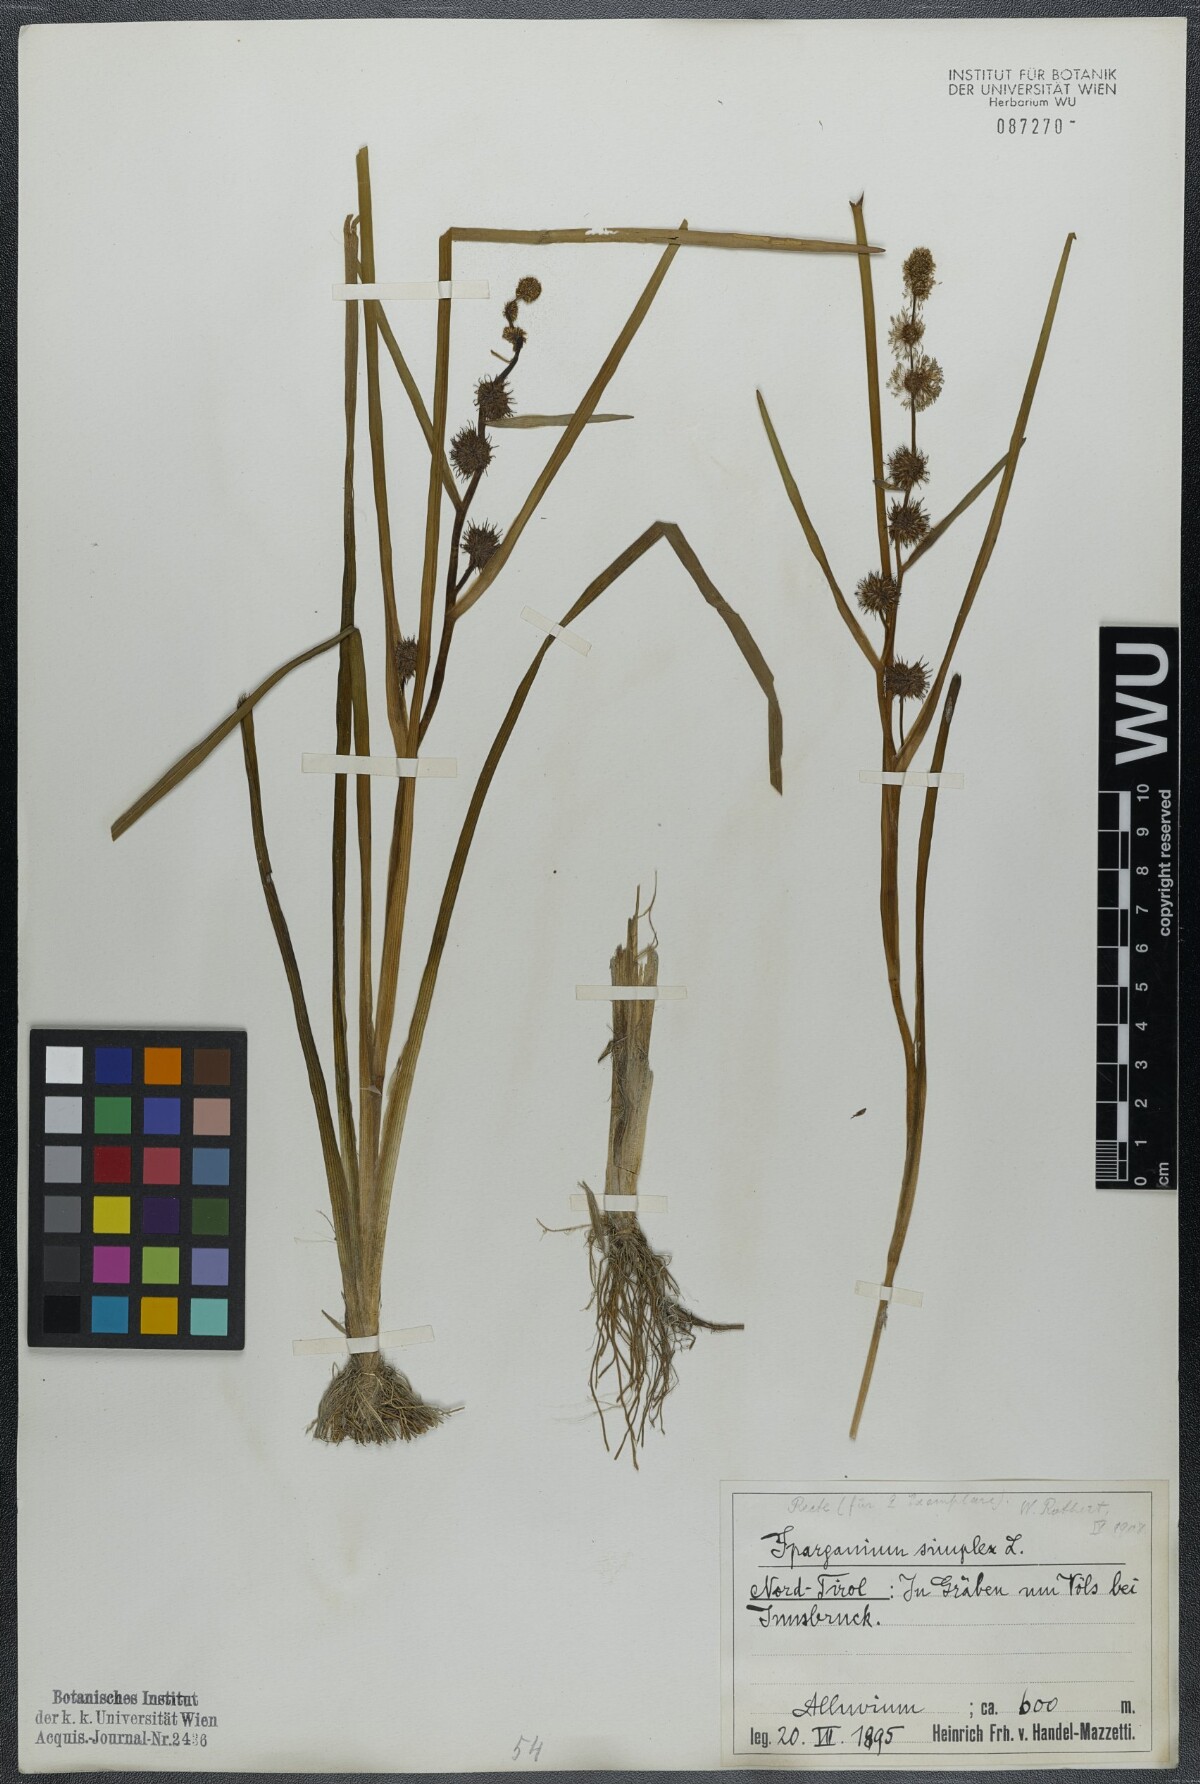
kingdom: Plantae
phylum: Tracheophyta
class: Liliopsida
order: Poales
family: Typhaceae
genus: Sparganium
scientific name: Sparganium emersum
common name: Unbranched bur-reed
